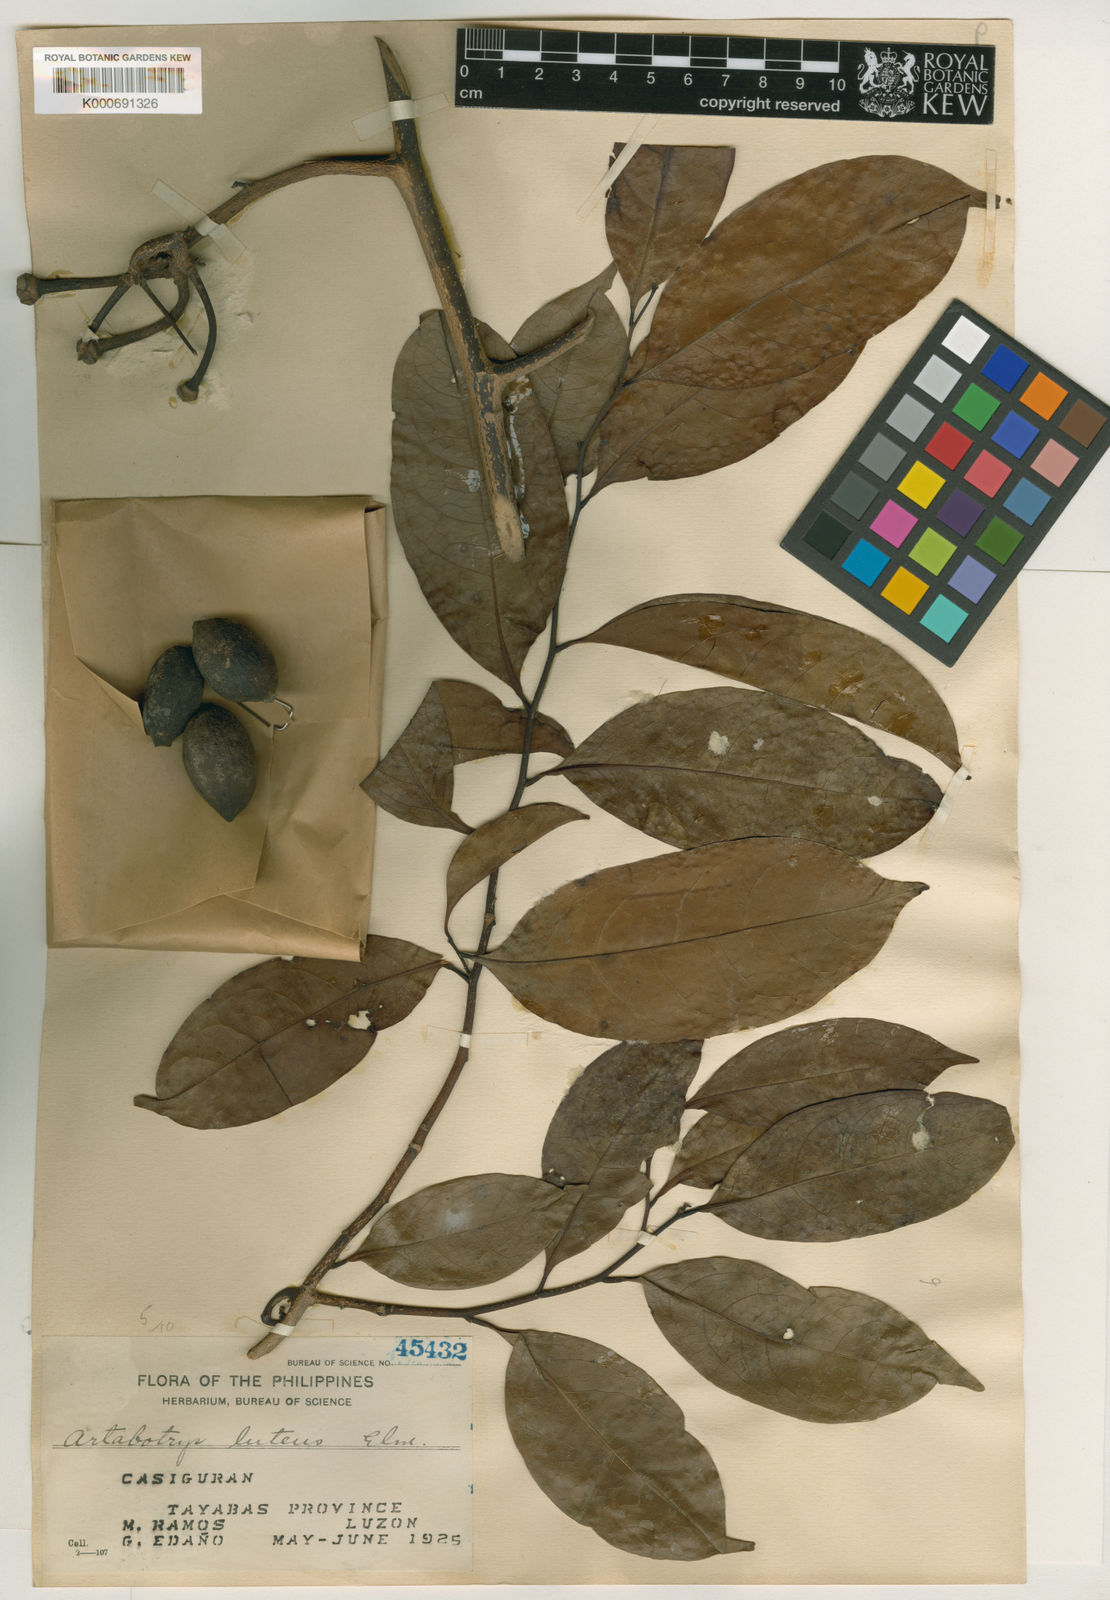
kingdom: Plantae
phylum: Tracheophyta
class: Magnoliopsida
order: Magnoliales
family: Annonaceae
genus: Artabotrys
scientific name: Artabotrys luteus
